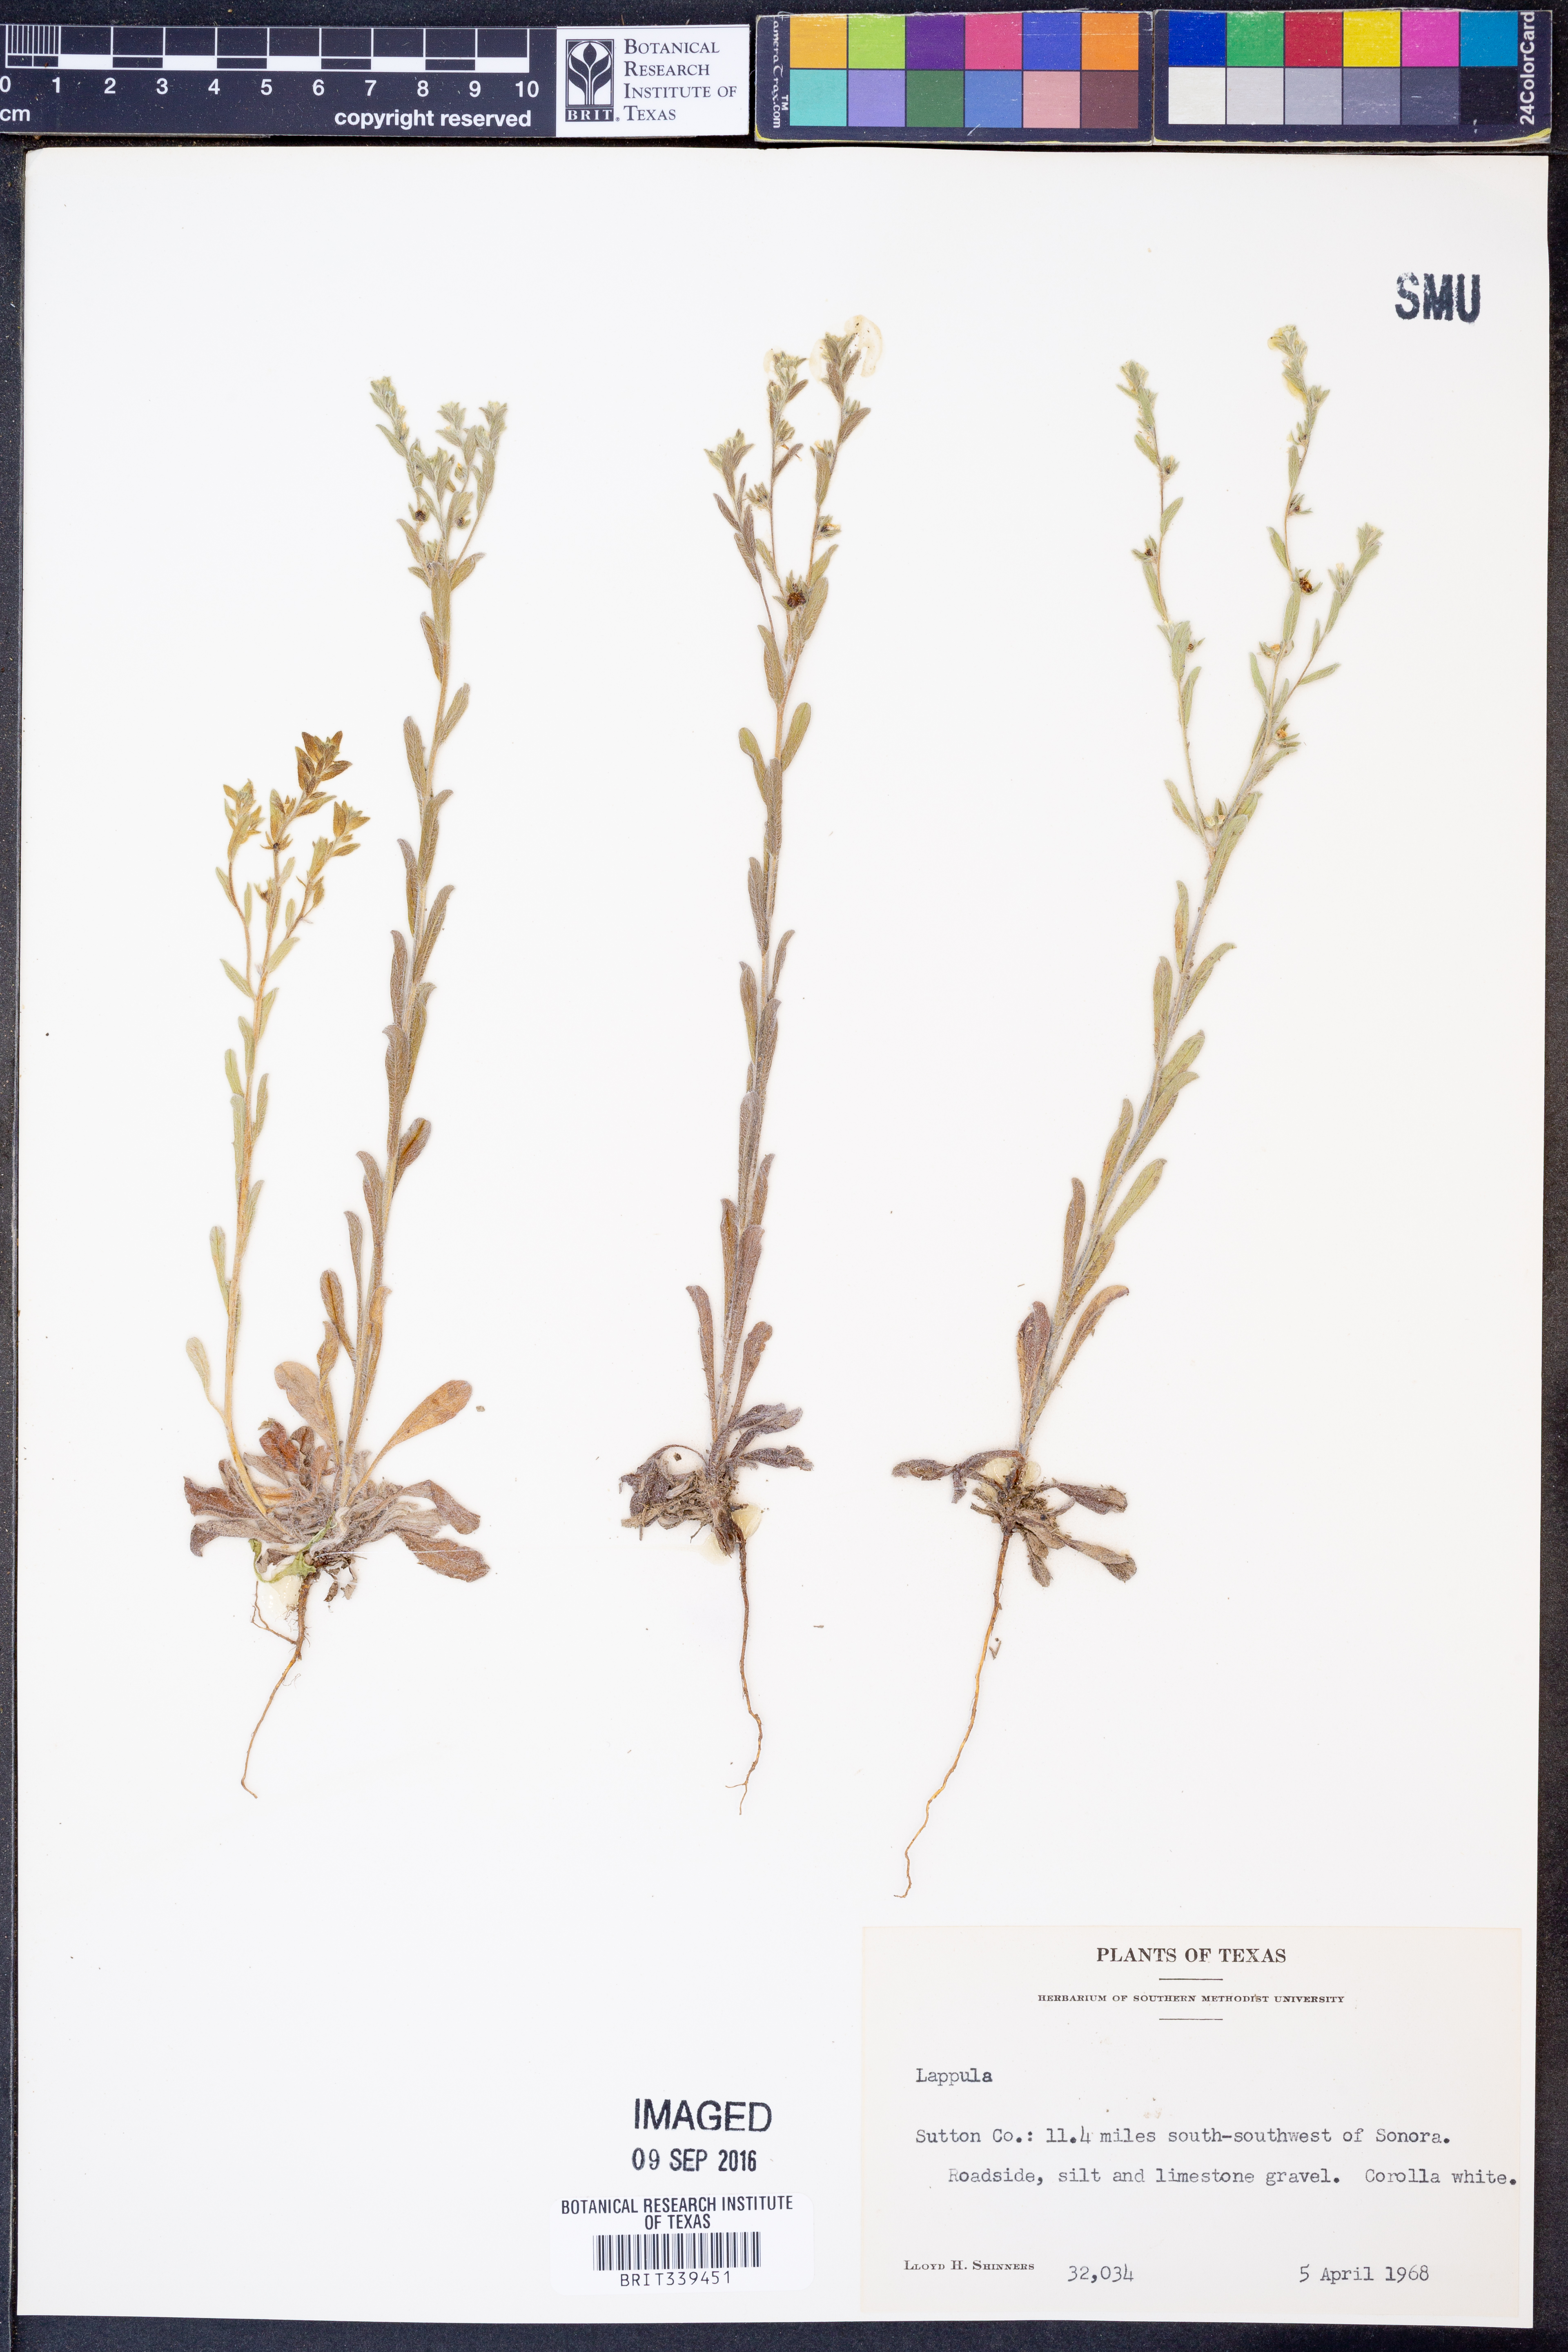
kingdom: Plantae
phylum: Tracheophyta
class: Magnoliopsida
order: Boraginales
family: Boraginaceae
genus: Lappula
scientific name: Lappula
